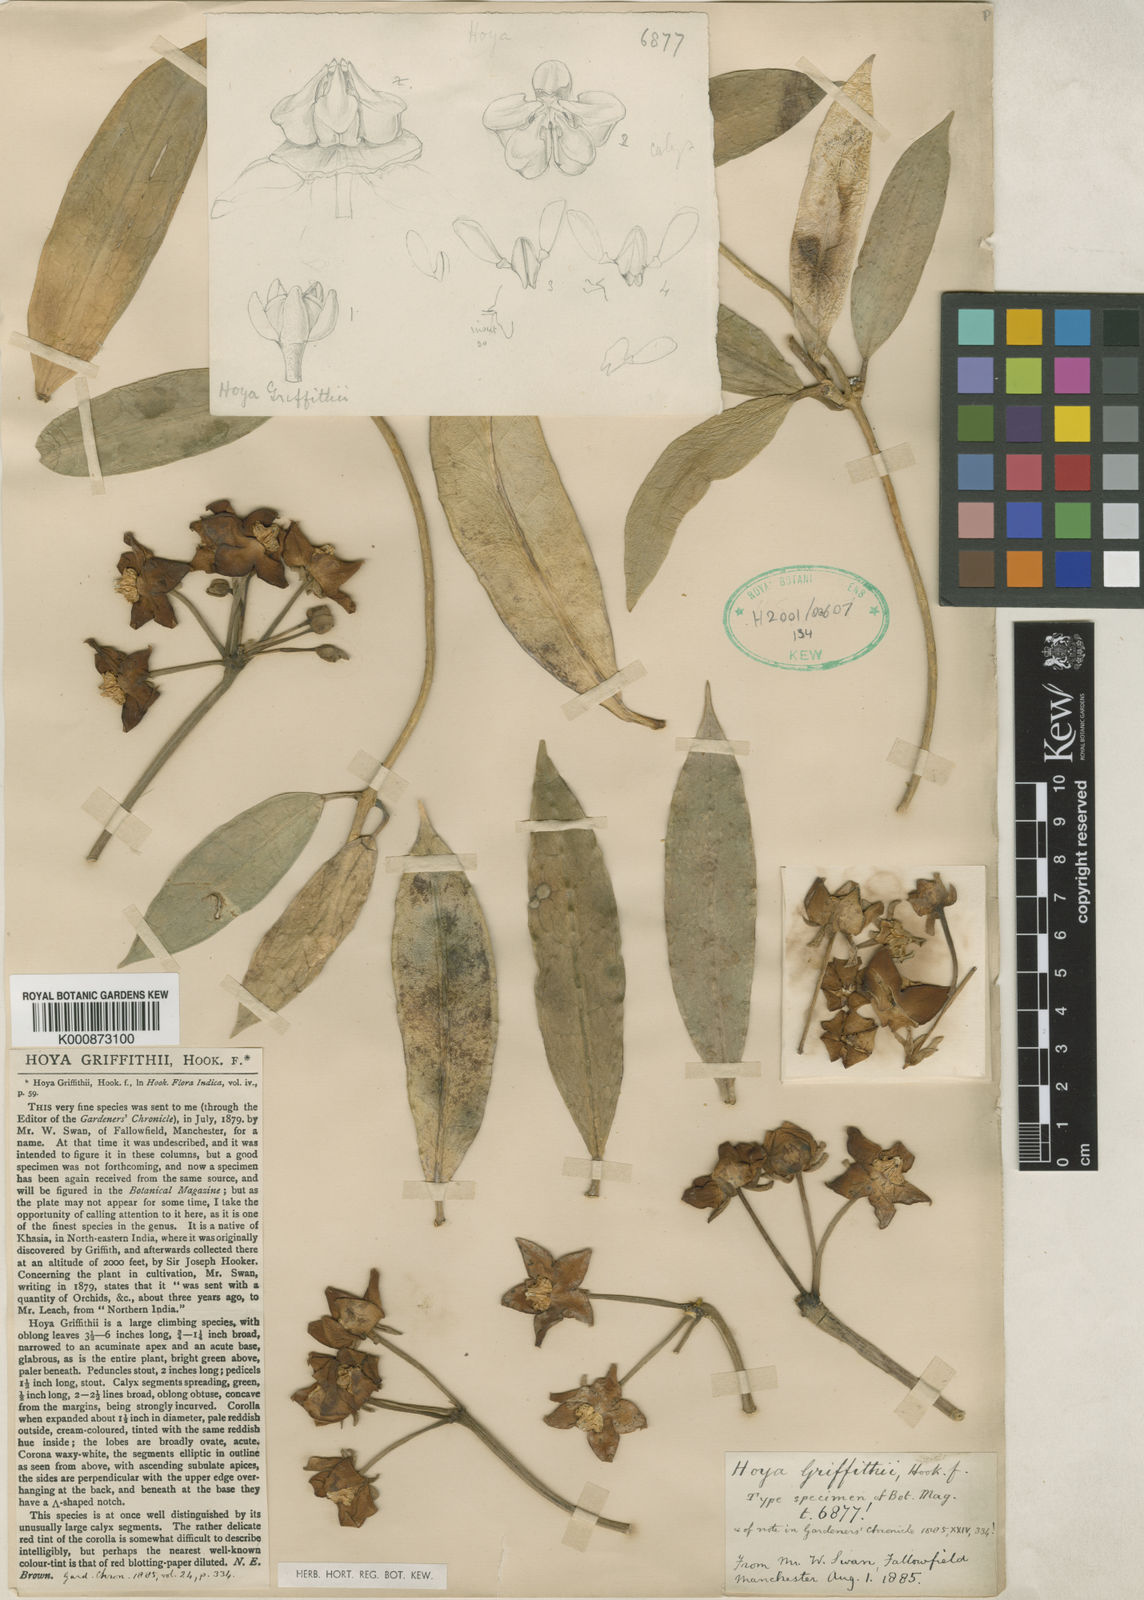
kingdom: Plantae
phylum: Tracheophyta
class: Magnoliopsida
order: Gentianales
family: Apocynaceae
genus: Hoya
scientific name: Hoya griffithii
